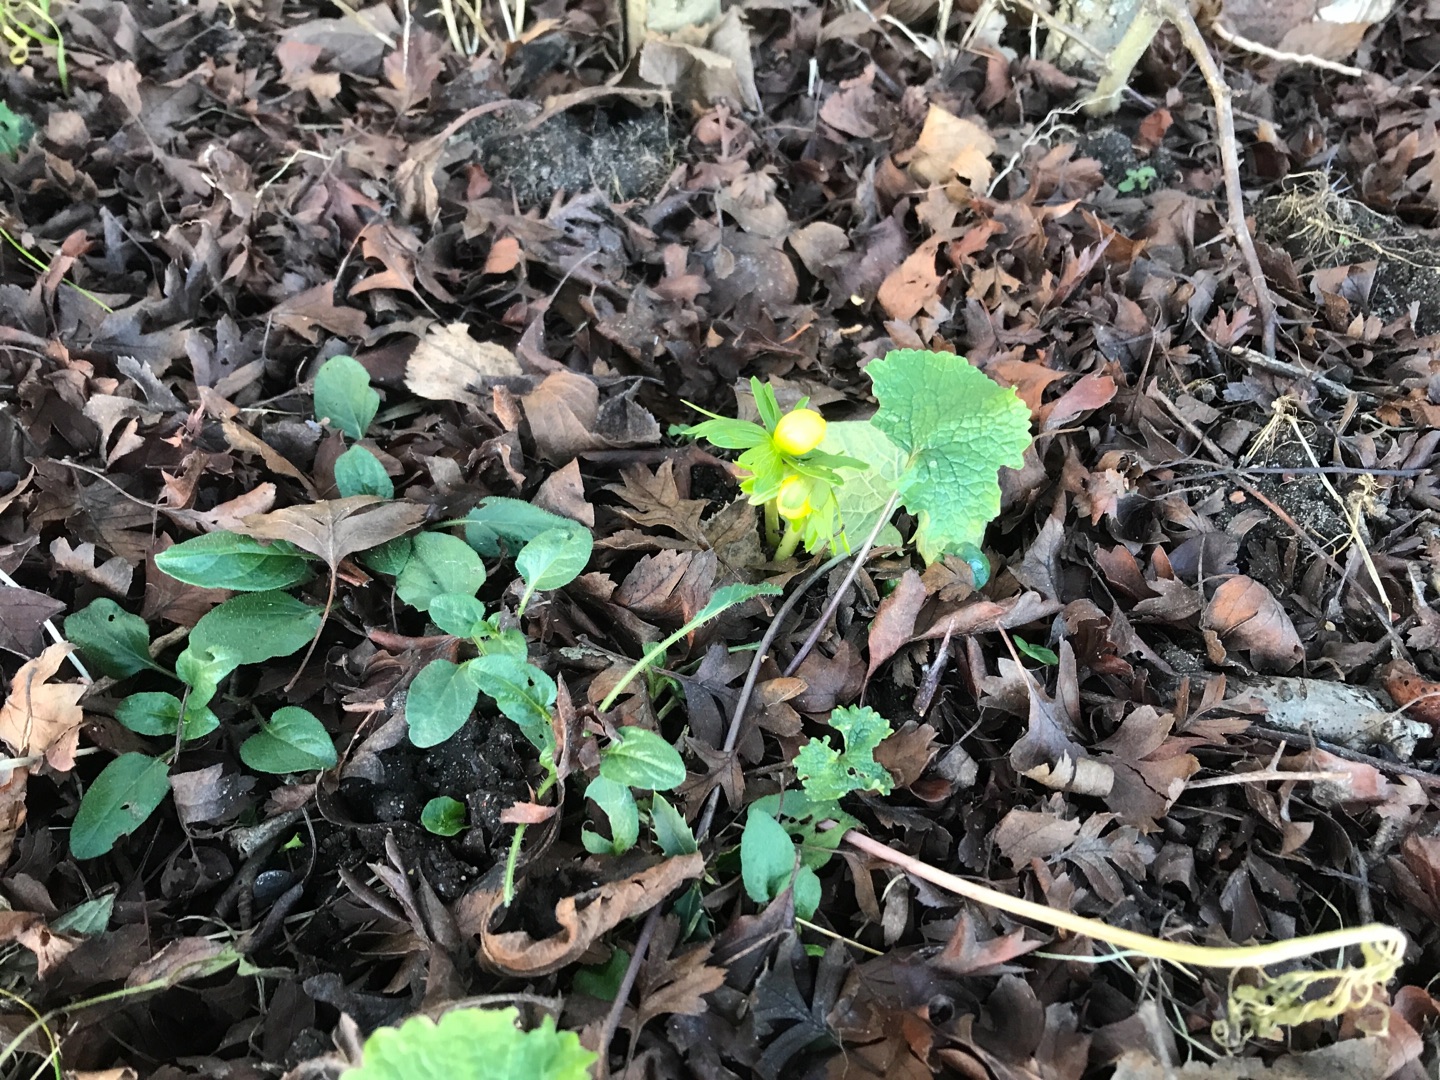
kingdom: Plantae
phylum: Tracheophyta
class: Magnoliopsida
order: Ranunculales
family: Ranunculaceae
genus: Eranthis
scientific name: Eranthis hyemalis
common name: Erantis
